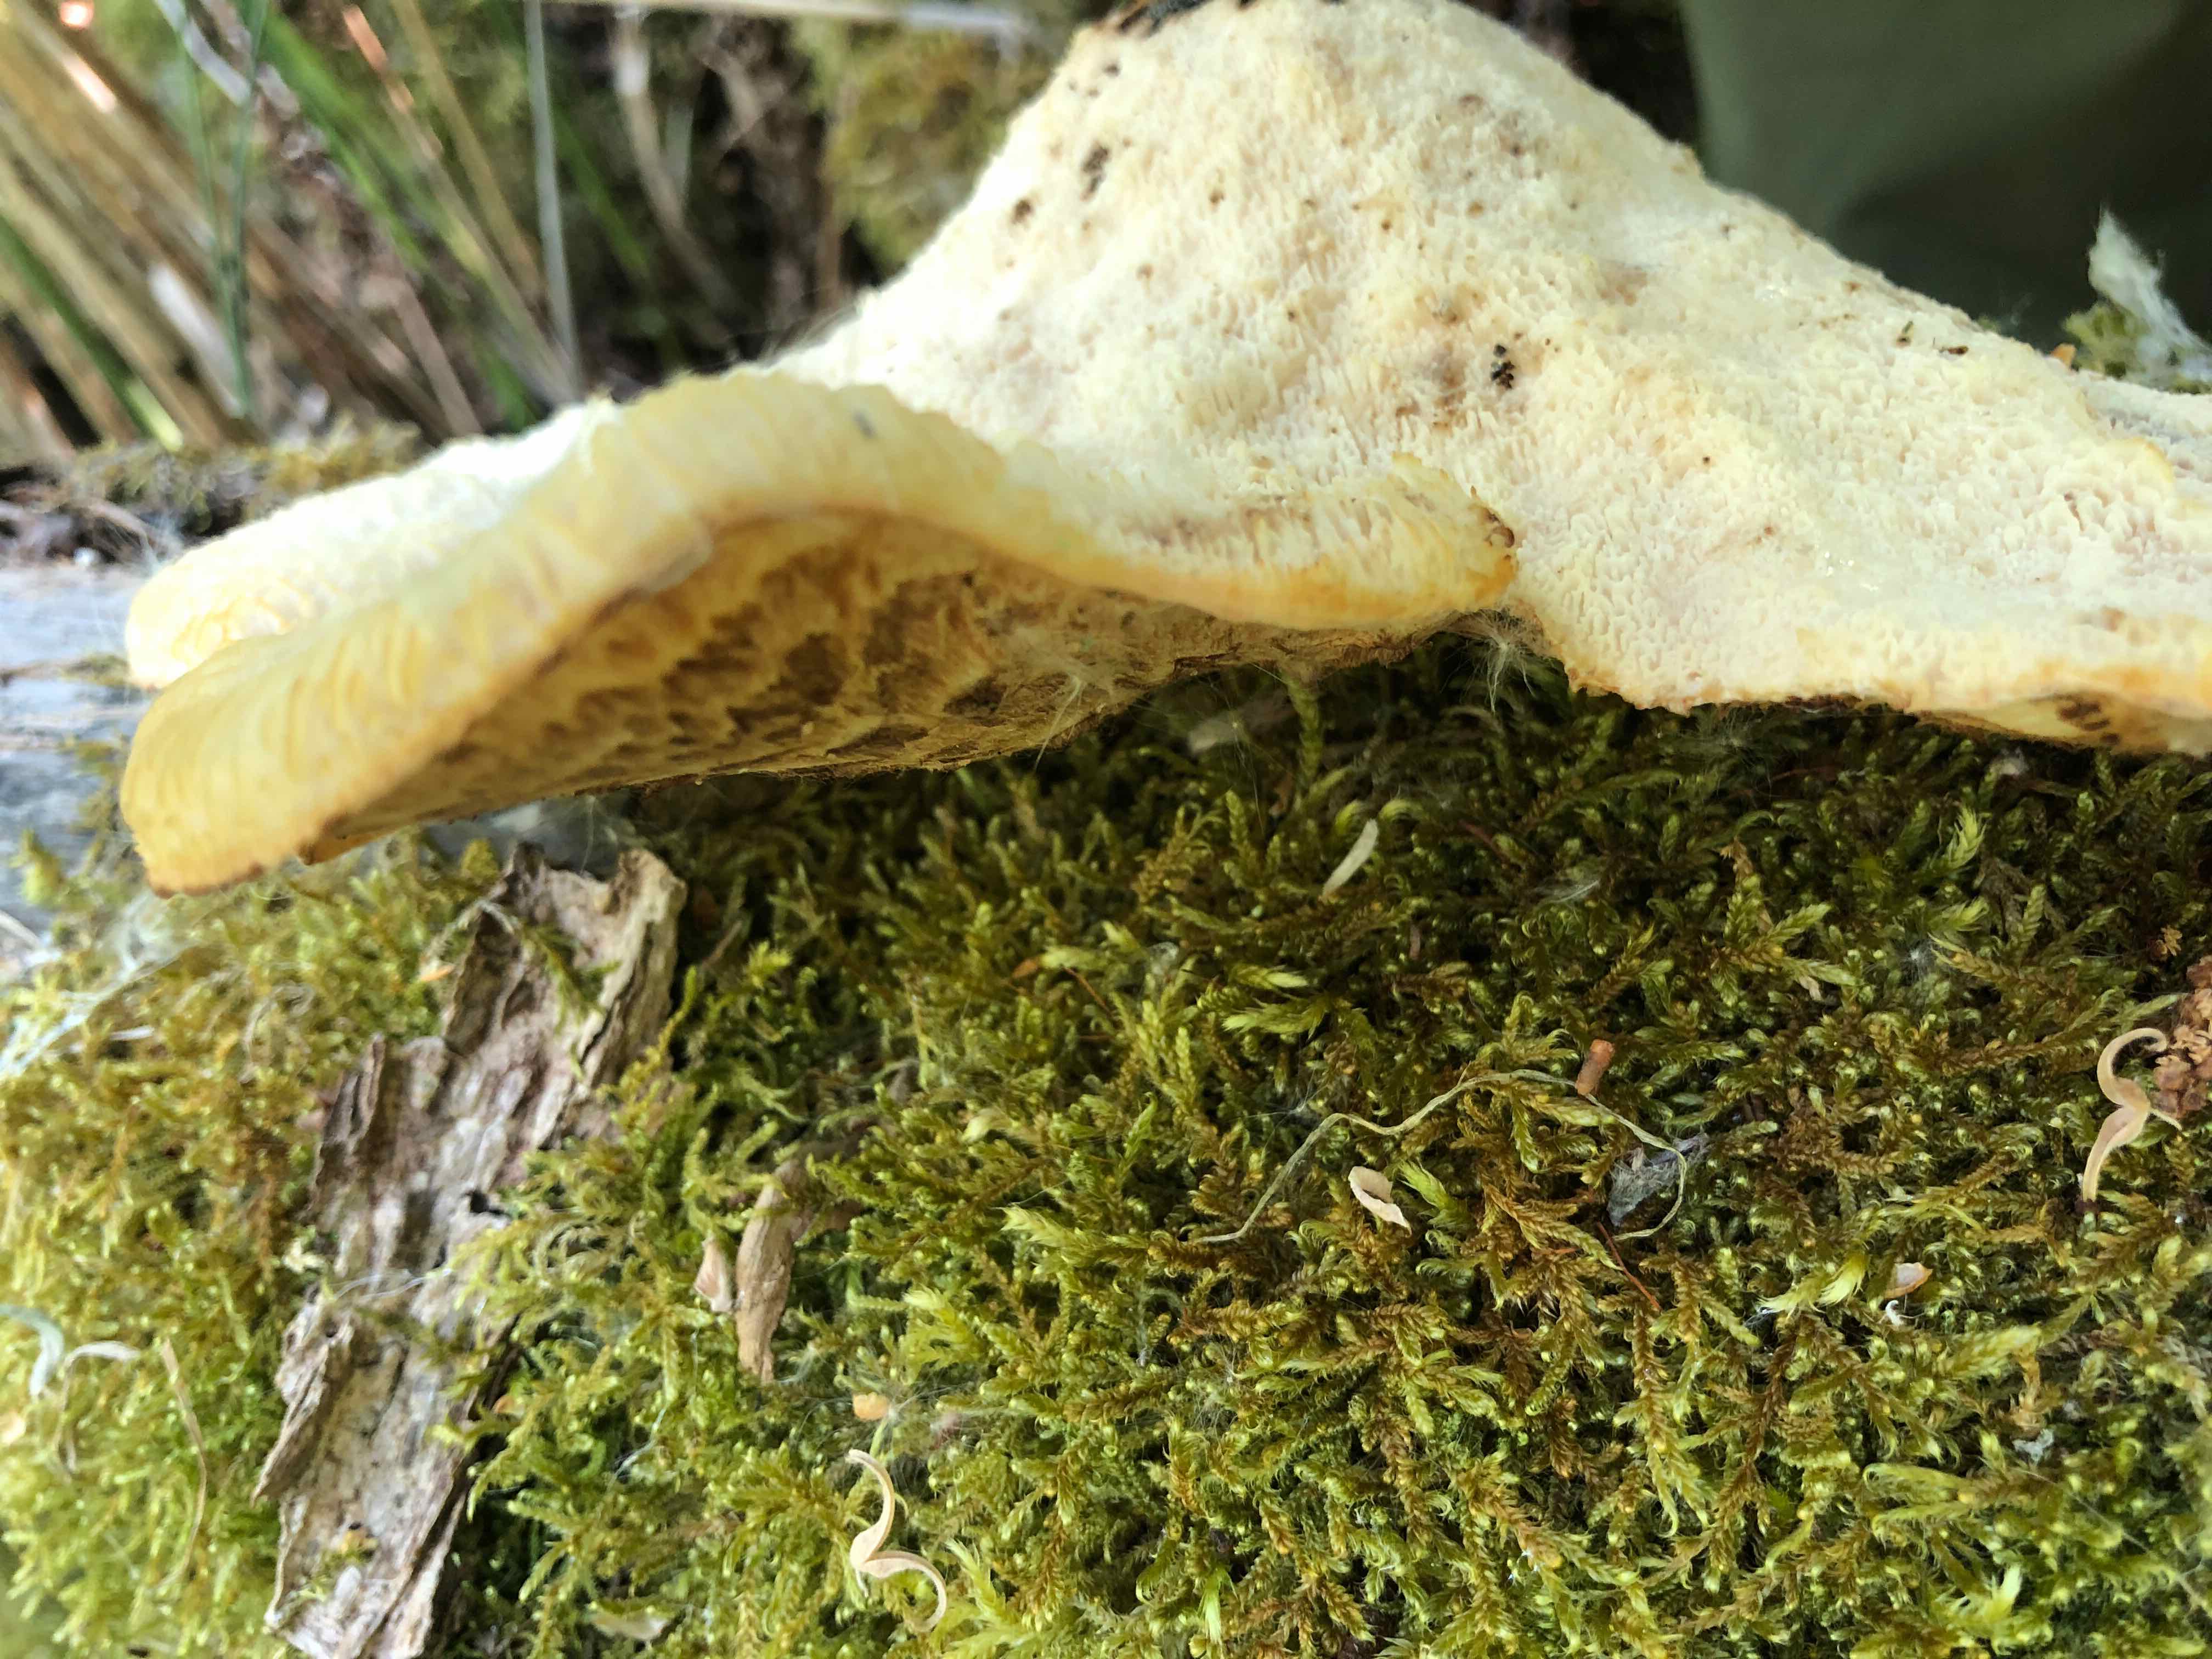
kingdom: Fungi
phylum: Basidiomycota
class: Agaricomycetes
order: Polyporales
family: Polyporaceae
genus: Cerioporus
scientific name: Cerioporus squamosus
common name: skællet stilkporesvamp
